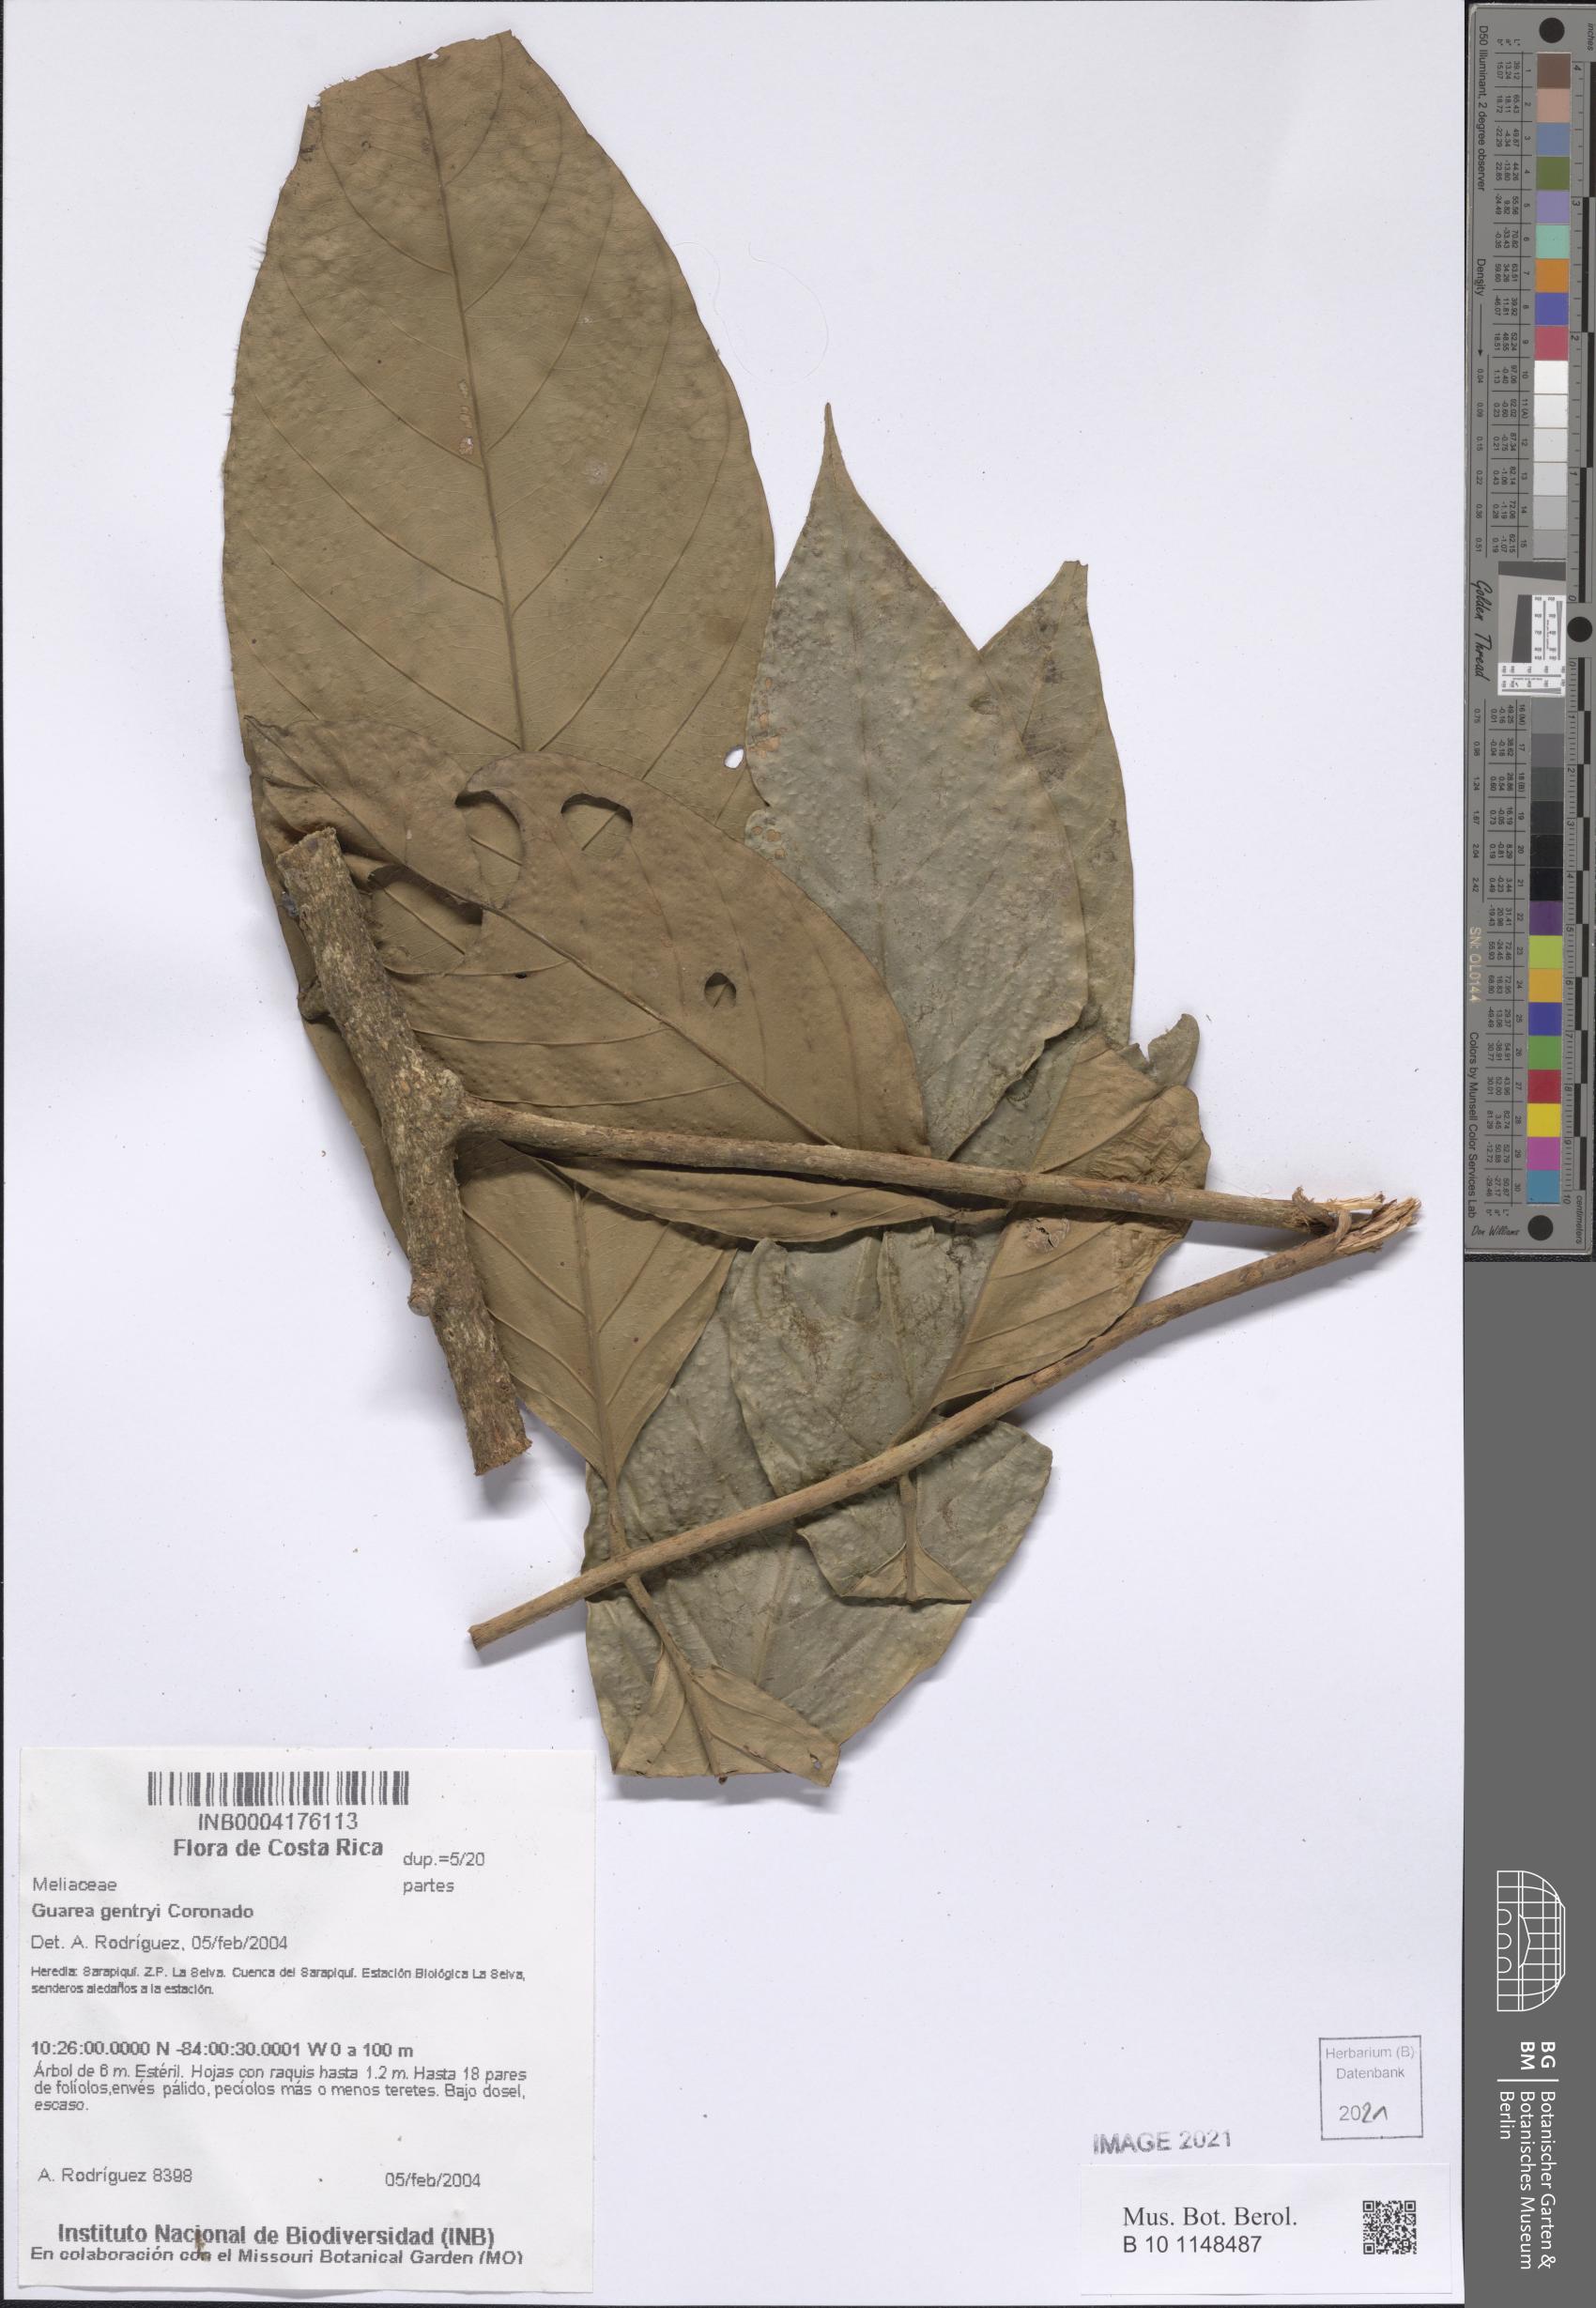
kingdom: Plantae
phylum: Tracheophyta
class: Magnoliopsida
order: Sapindales
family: Meliaceae
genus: Guarea
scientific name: Guarea gentryi
